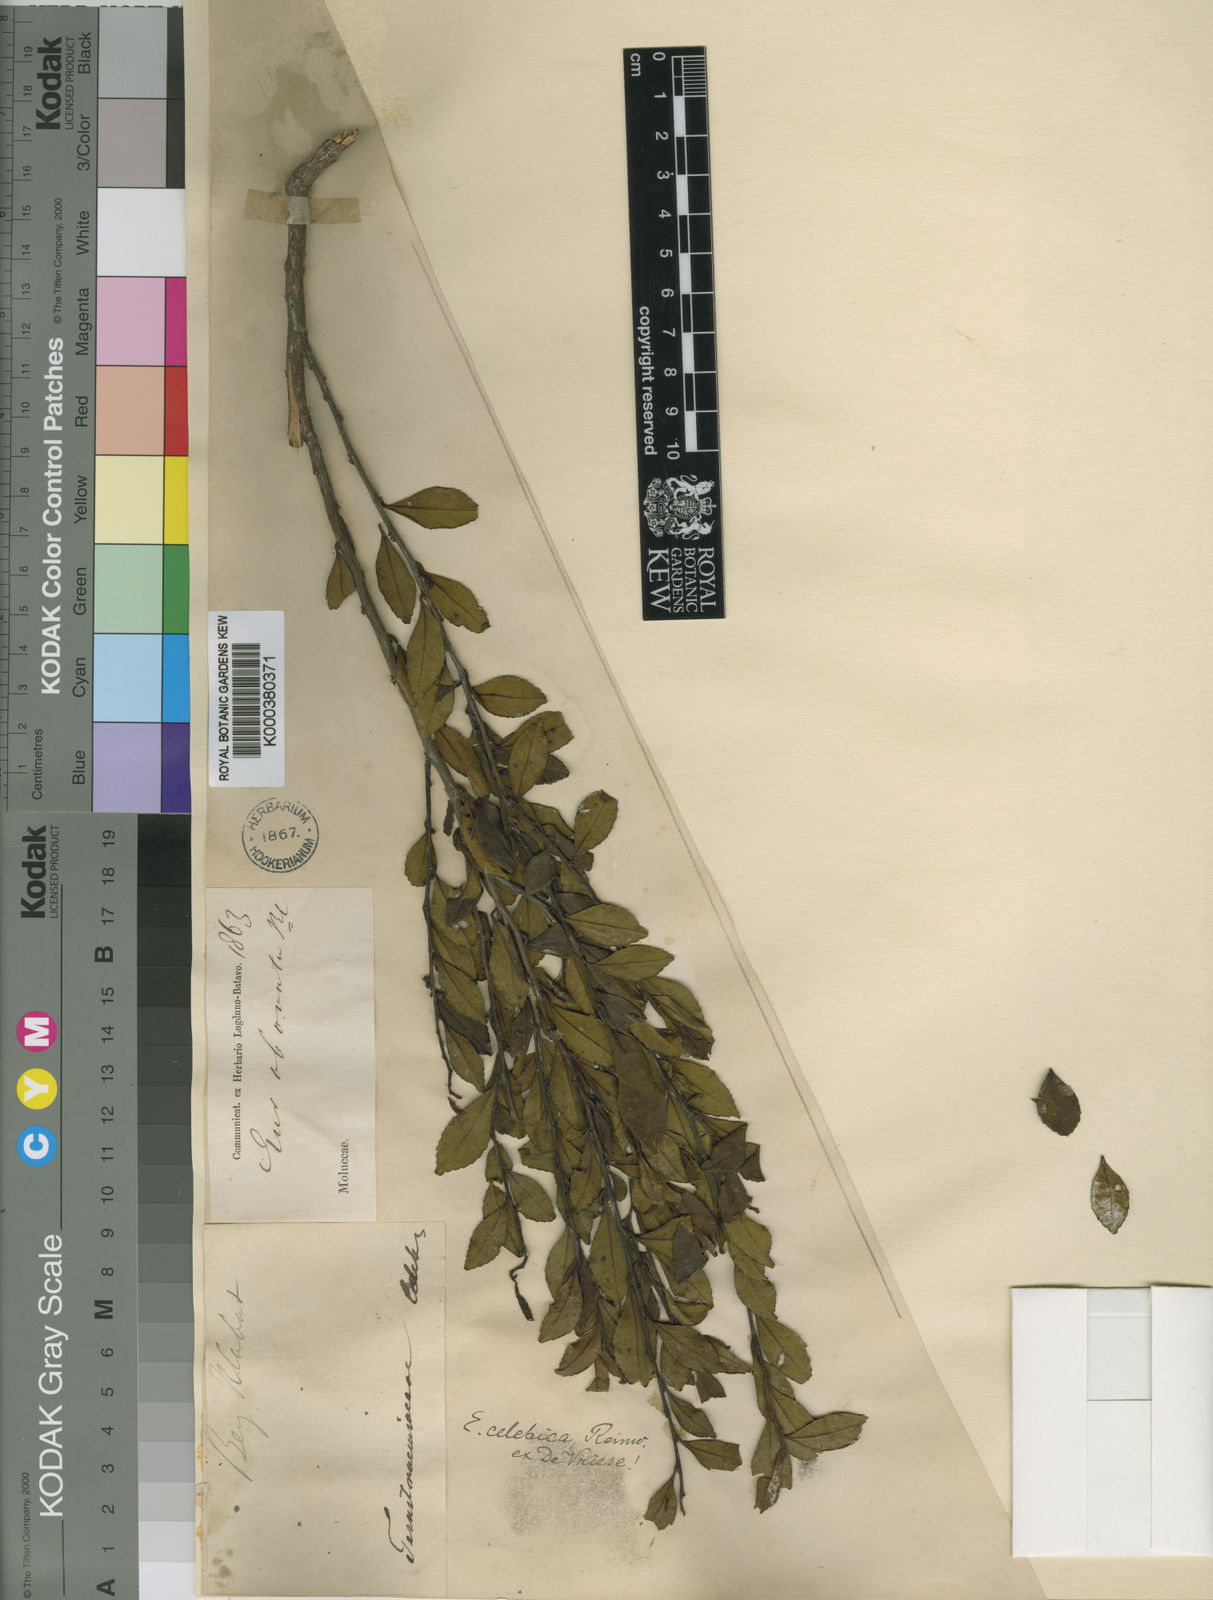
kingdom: Plantae
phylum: Tracheophyta
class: Magnoliopsida
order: Ericales
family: Pentaphylacaceae
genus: Eurya
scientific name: Eurya obovata
